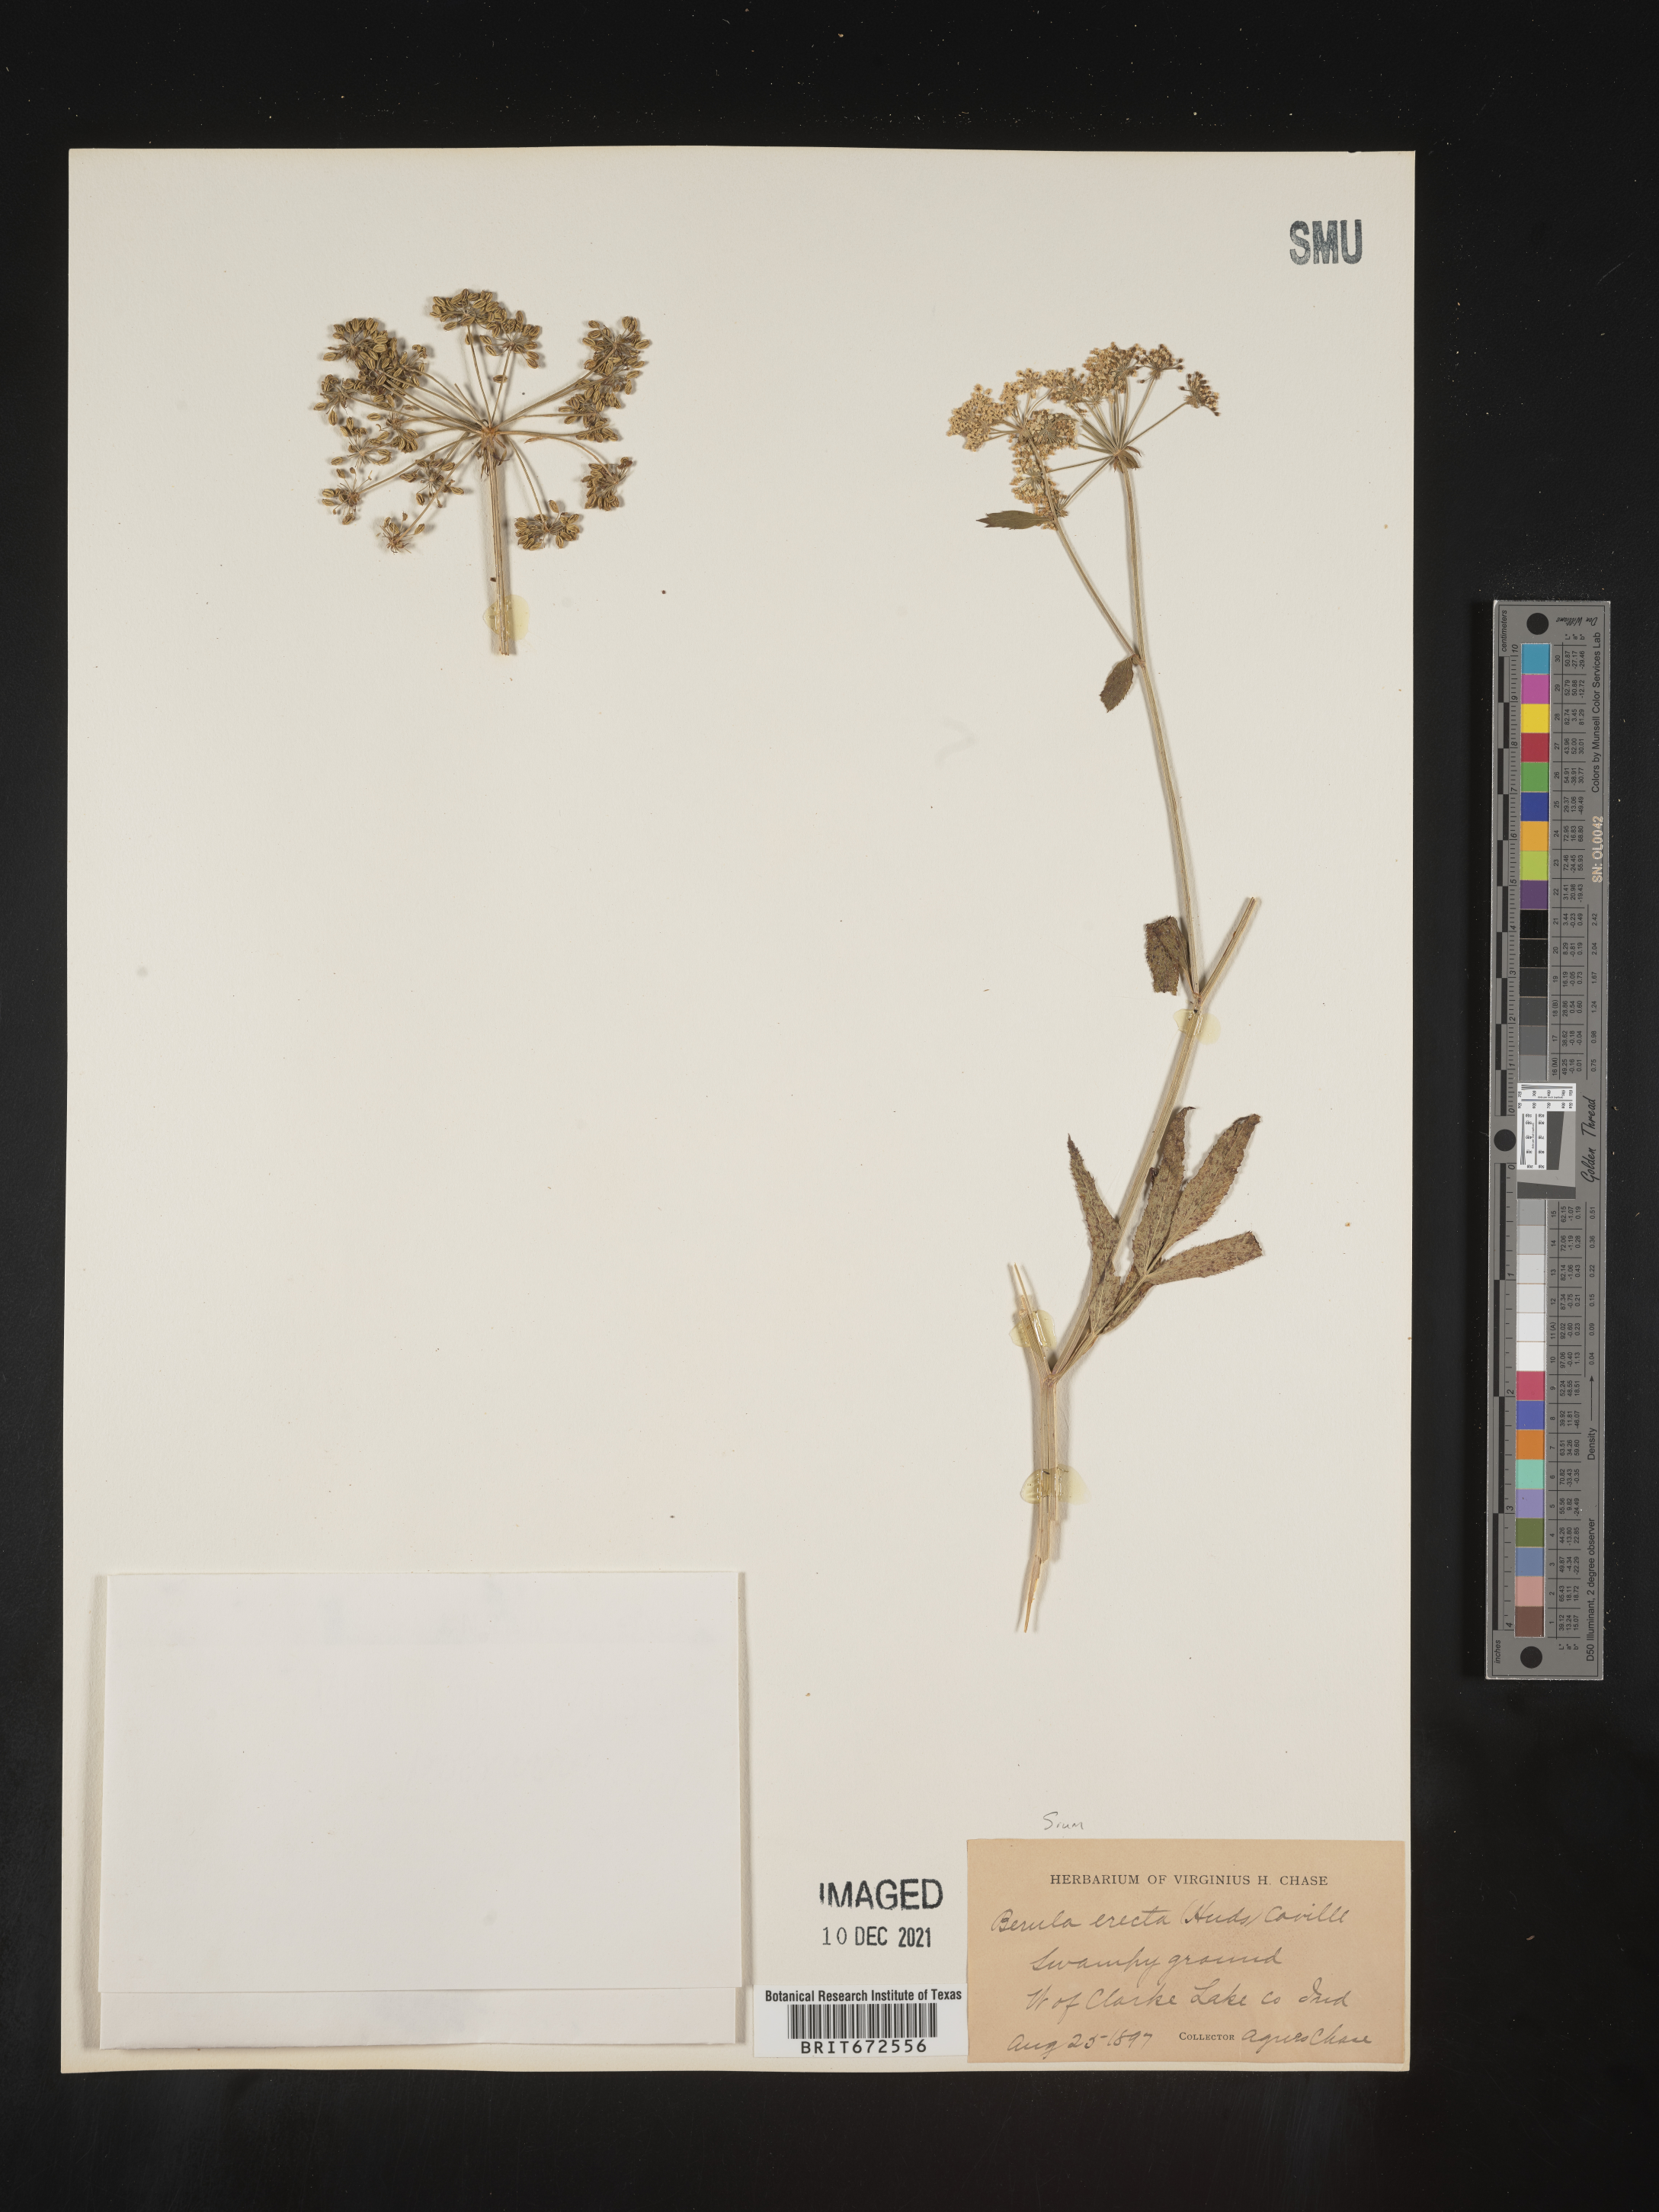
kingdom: Plantae
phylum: Tracheophyta
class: Magnoliopsida
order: Apiales
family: Apiaceae
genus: Sium
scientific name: Sium suave
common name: Hemlock water-parsnip
